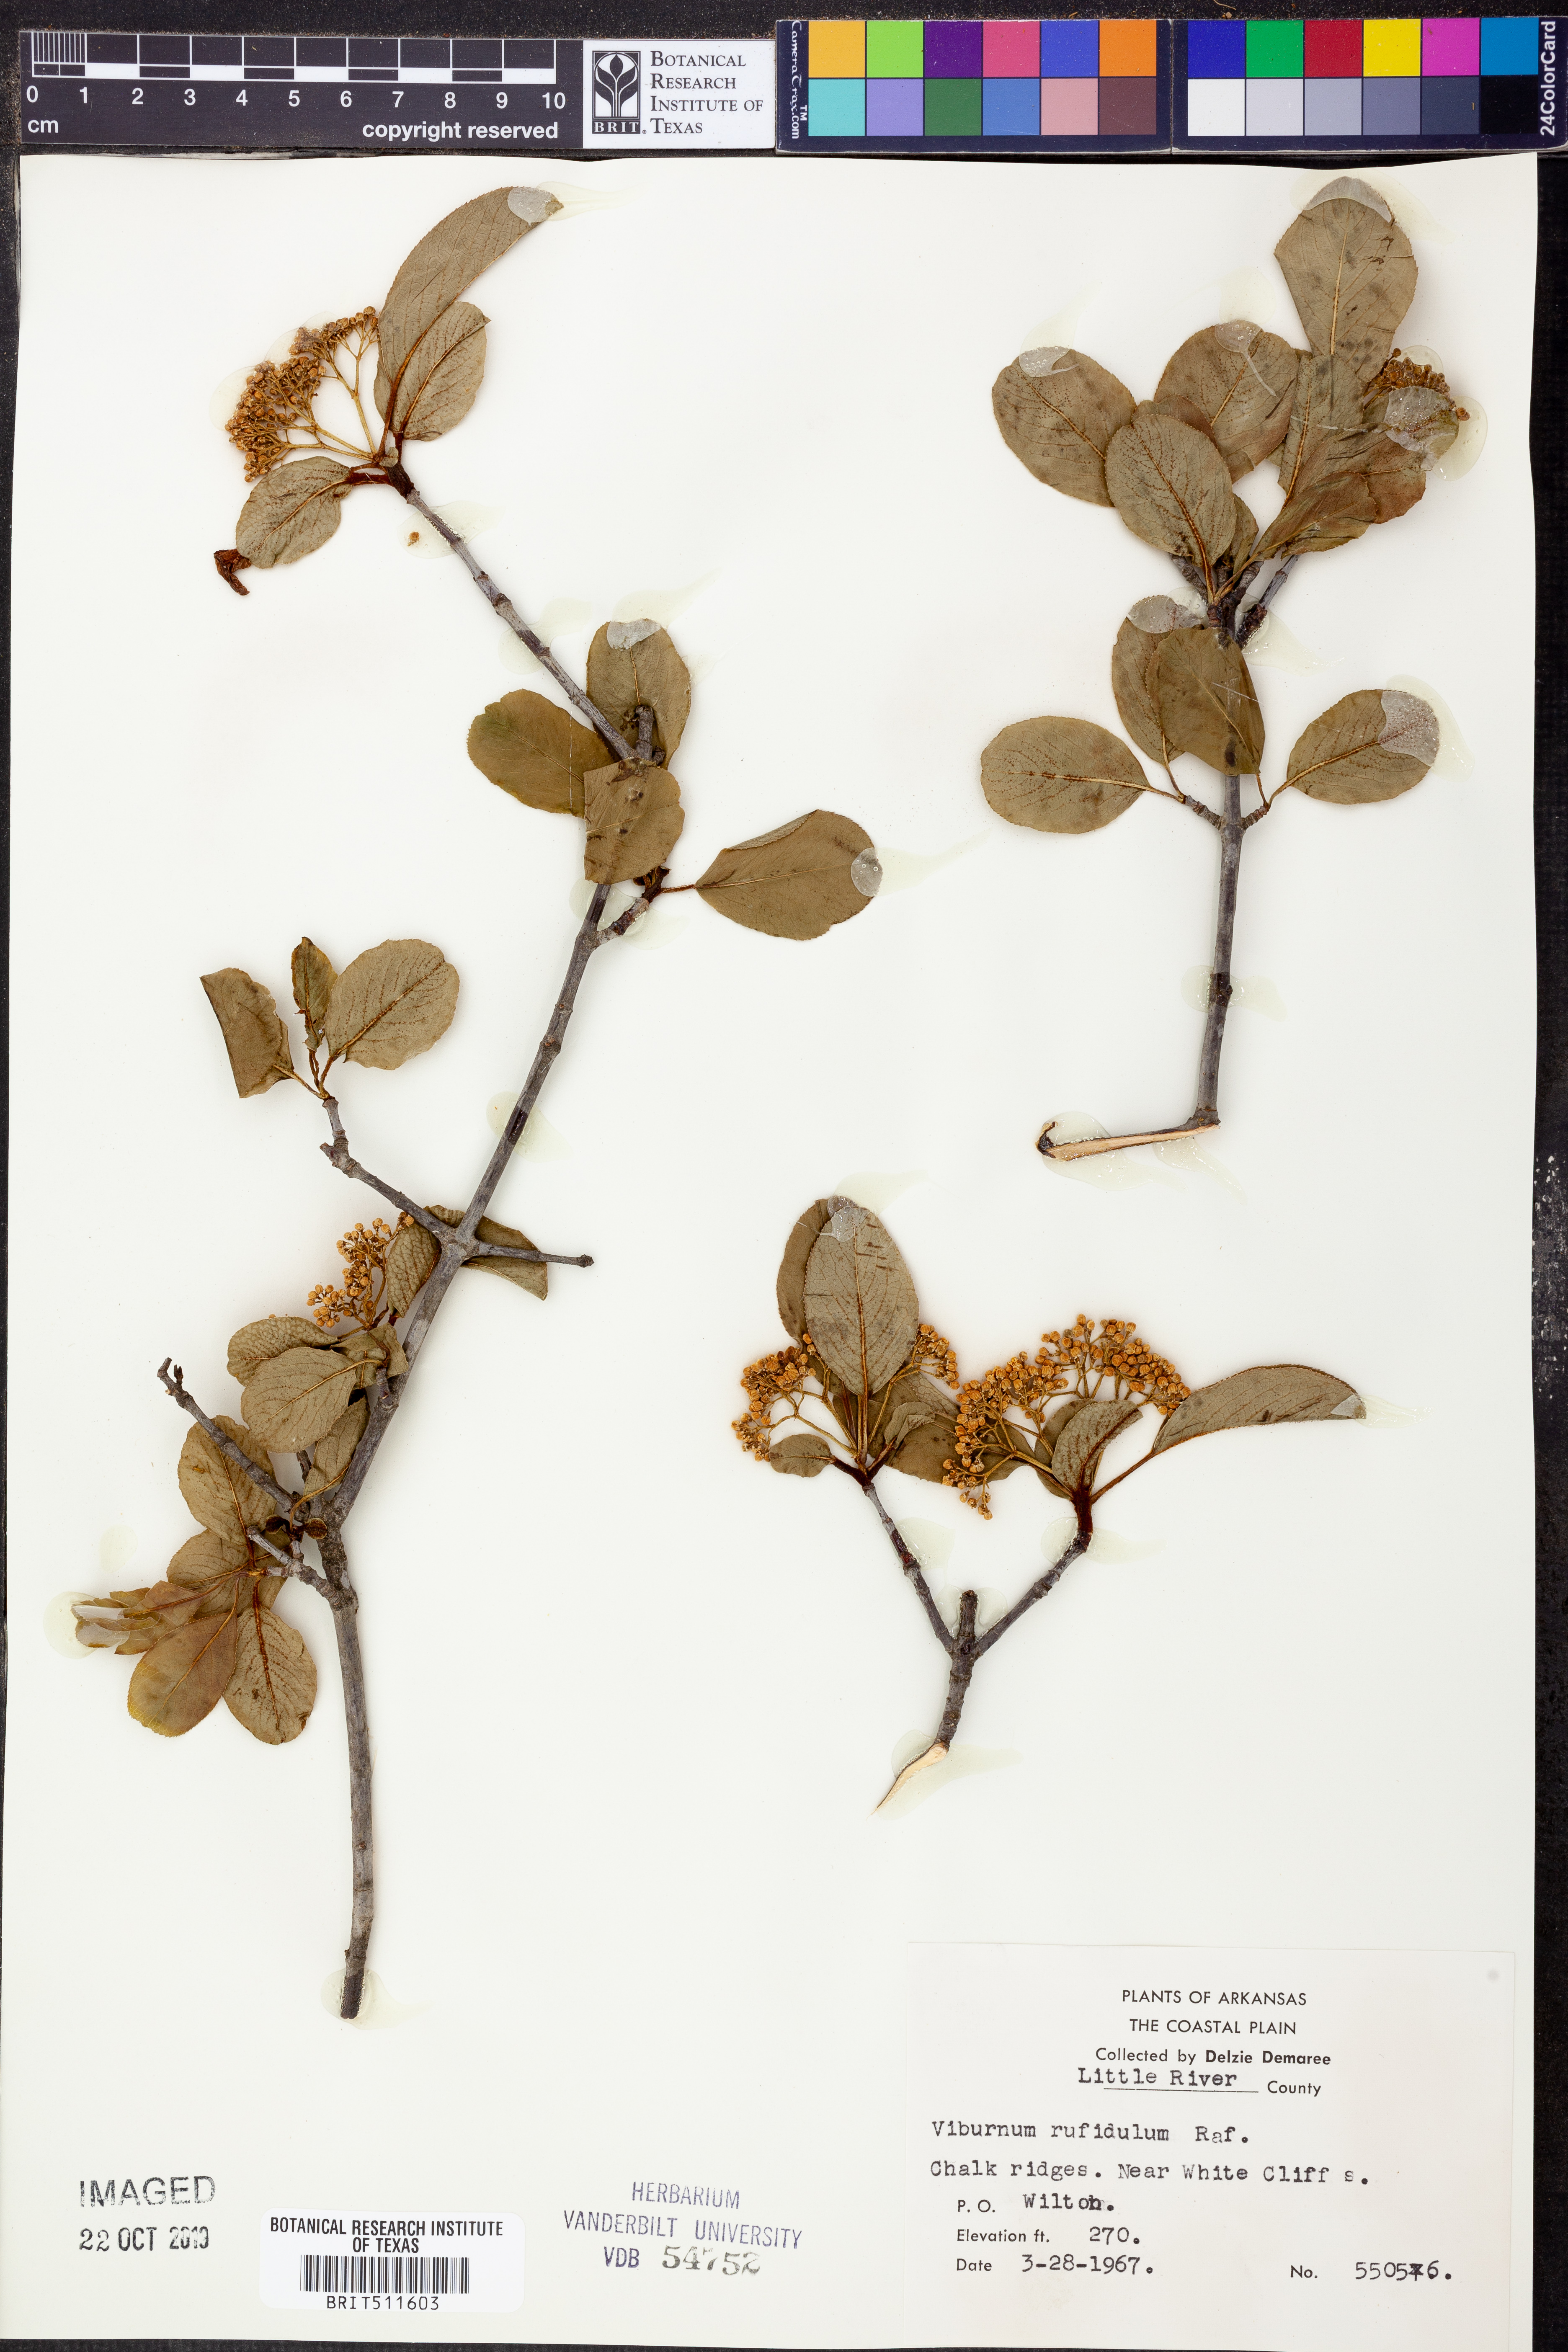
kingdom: Plantae
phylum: Tracheophyta
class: Magnoliopsida
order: Dipsacales
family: Viburnaceae
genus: Viburnum
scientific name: Viburnum rufidulum
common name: Blue haw
